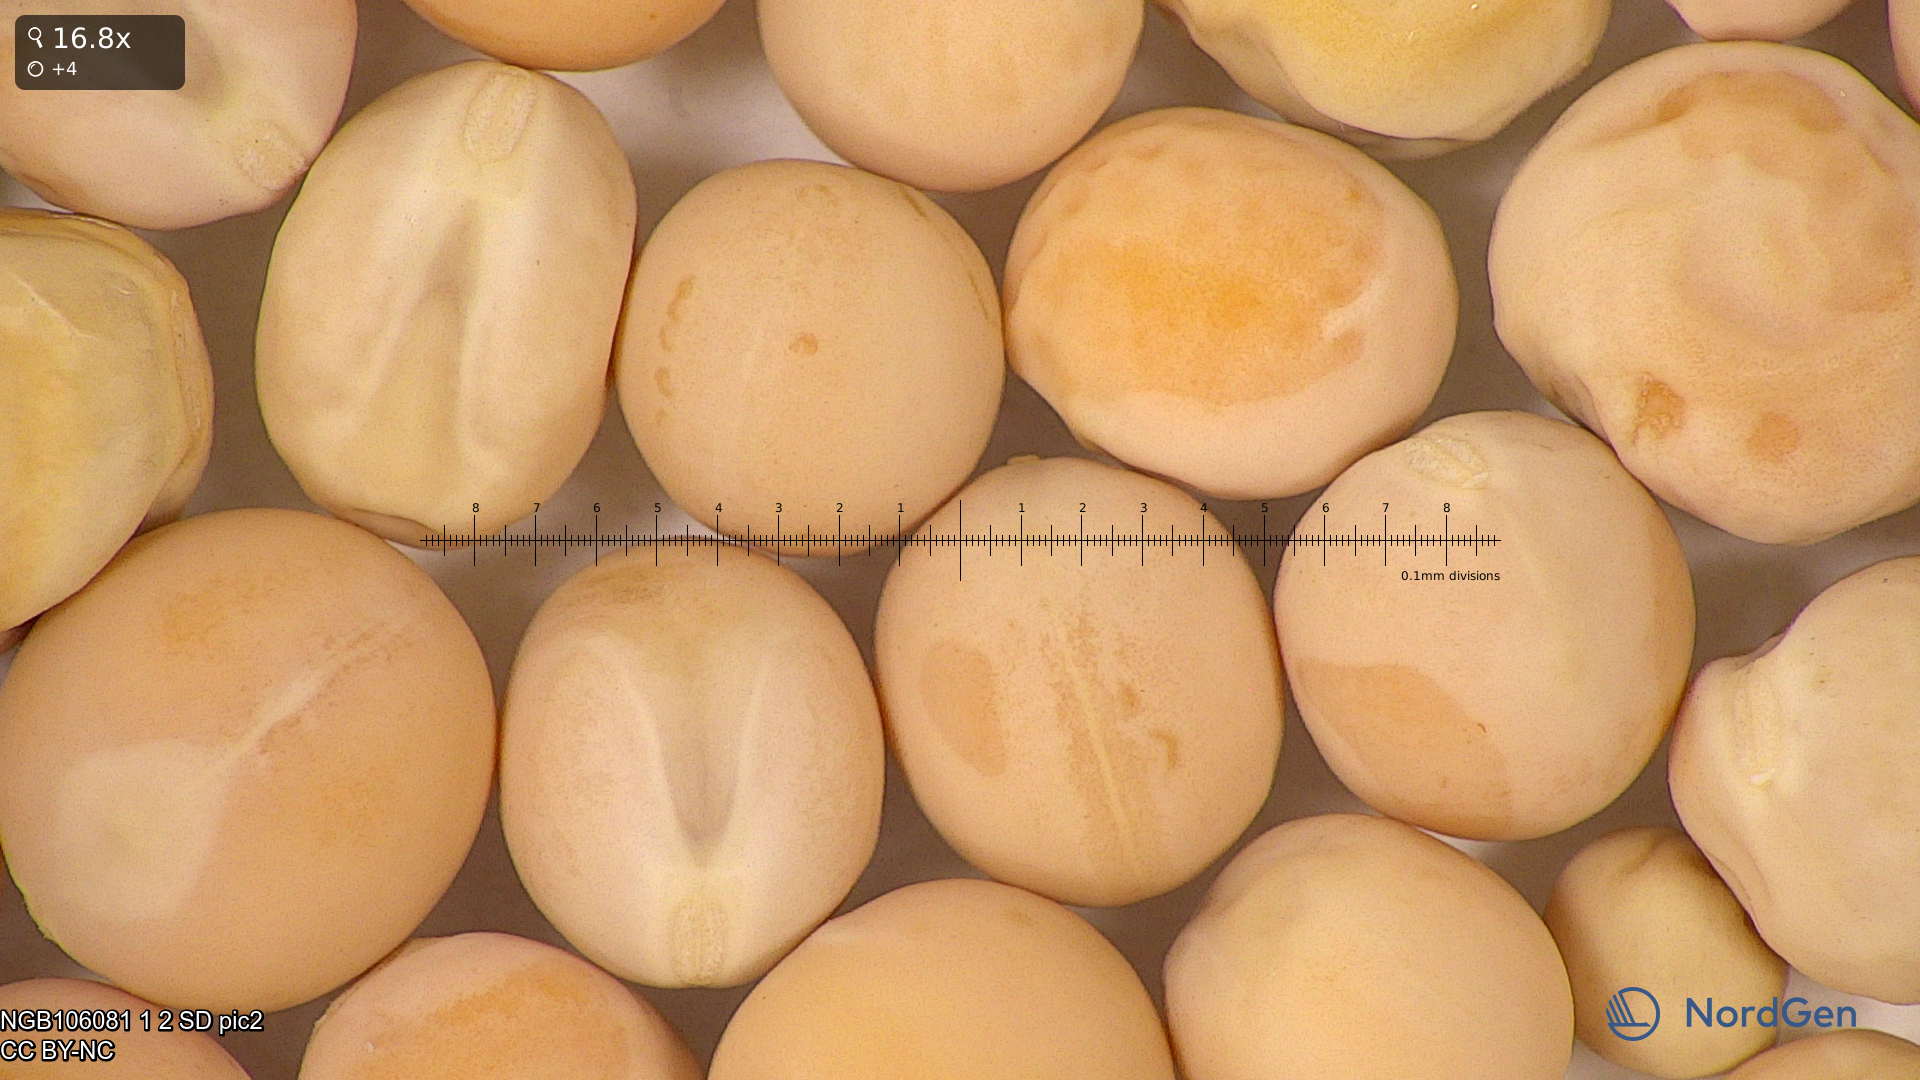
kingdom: Plantae
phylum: Tracheophyta
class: Magnoliopsida
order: Fabales
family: Fabaceae
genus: Lathyrus
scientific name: Lathyrus oleraceus
